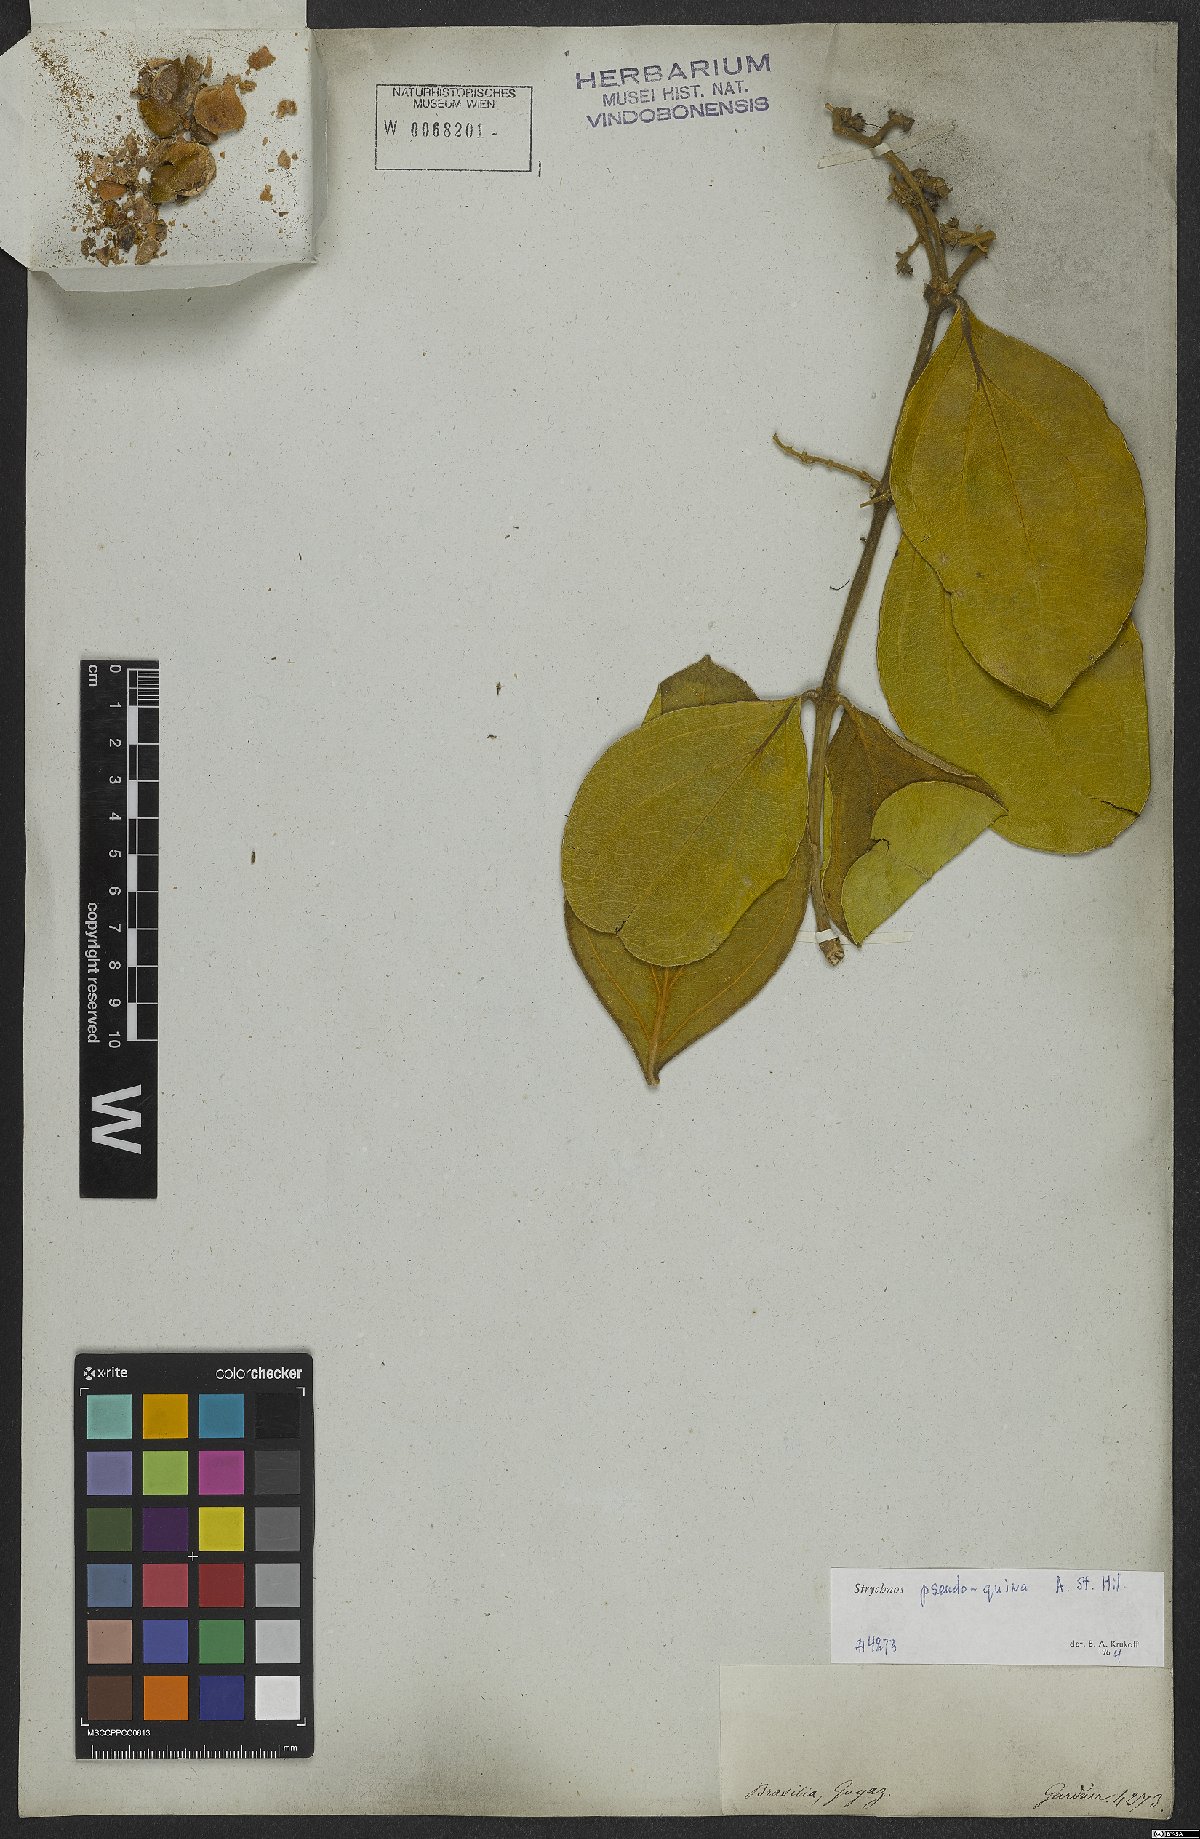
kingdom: Plantae
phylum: Tracheophyta
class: Magnoliopsida
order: Gentianales
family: Loganiaceae
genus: Strychnos
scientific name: Strychnos pseudoquina
